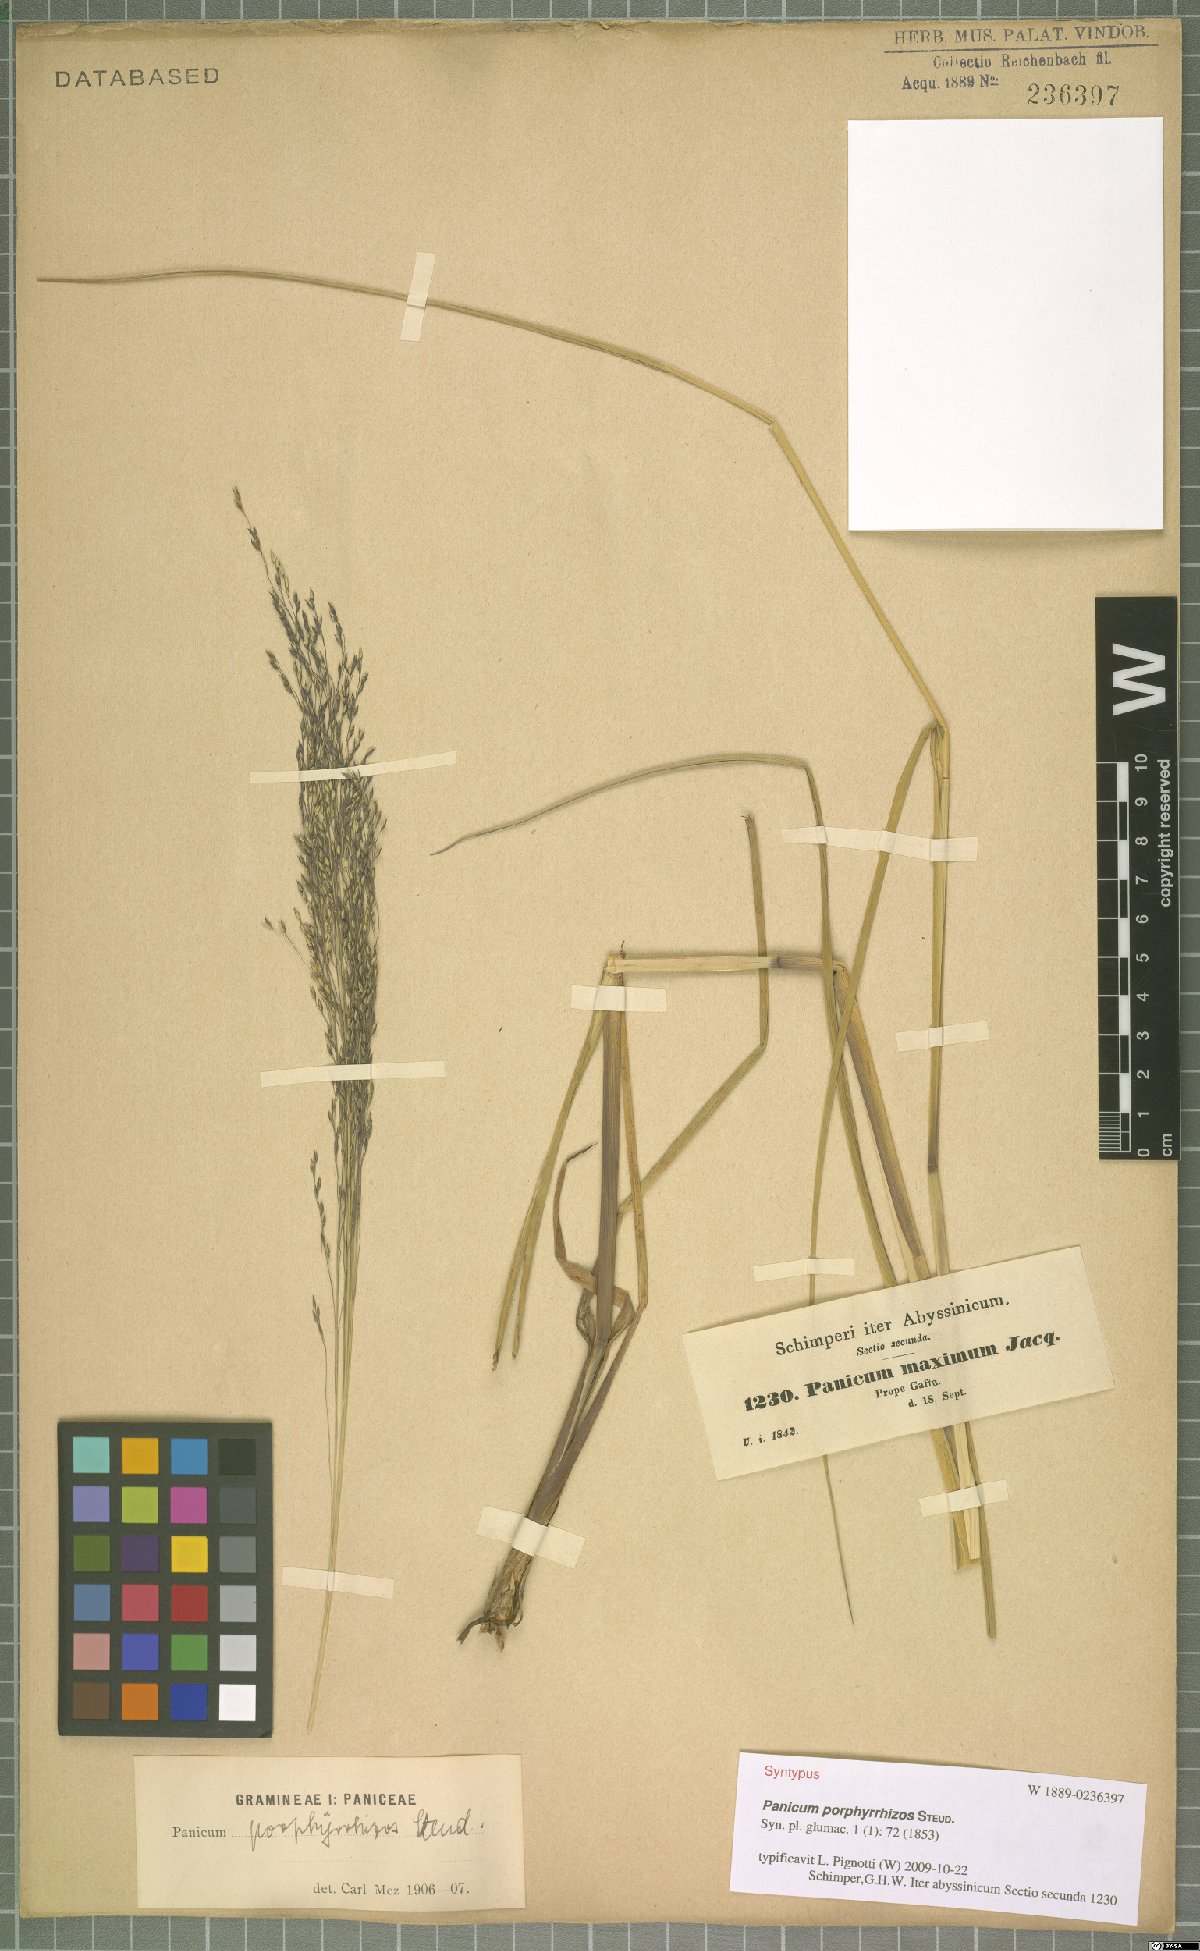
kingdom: Plantae
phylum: Tracheophyta
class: Liliopsida
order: Poales
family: Poaceae
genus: Panicum
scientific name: Panicum porphyrrhizos
